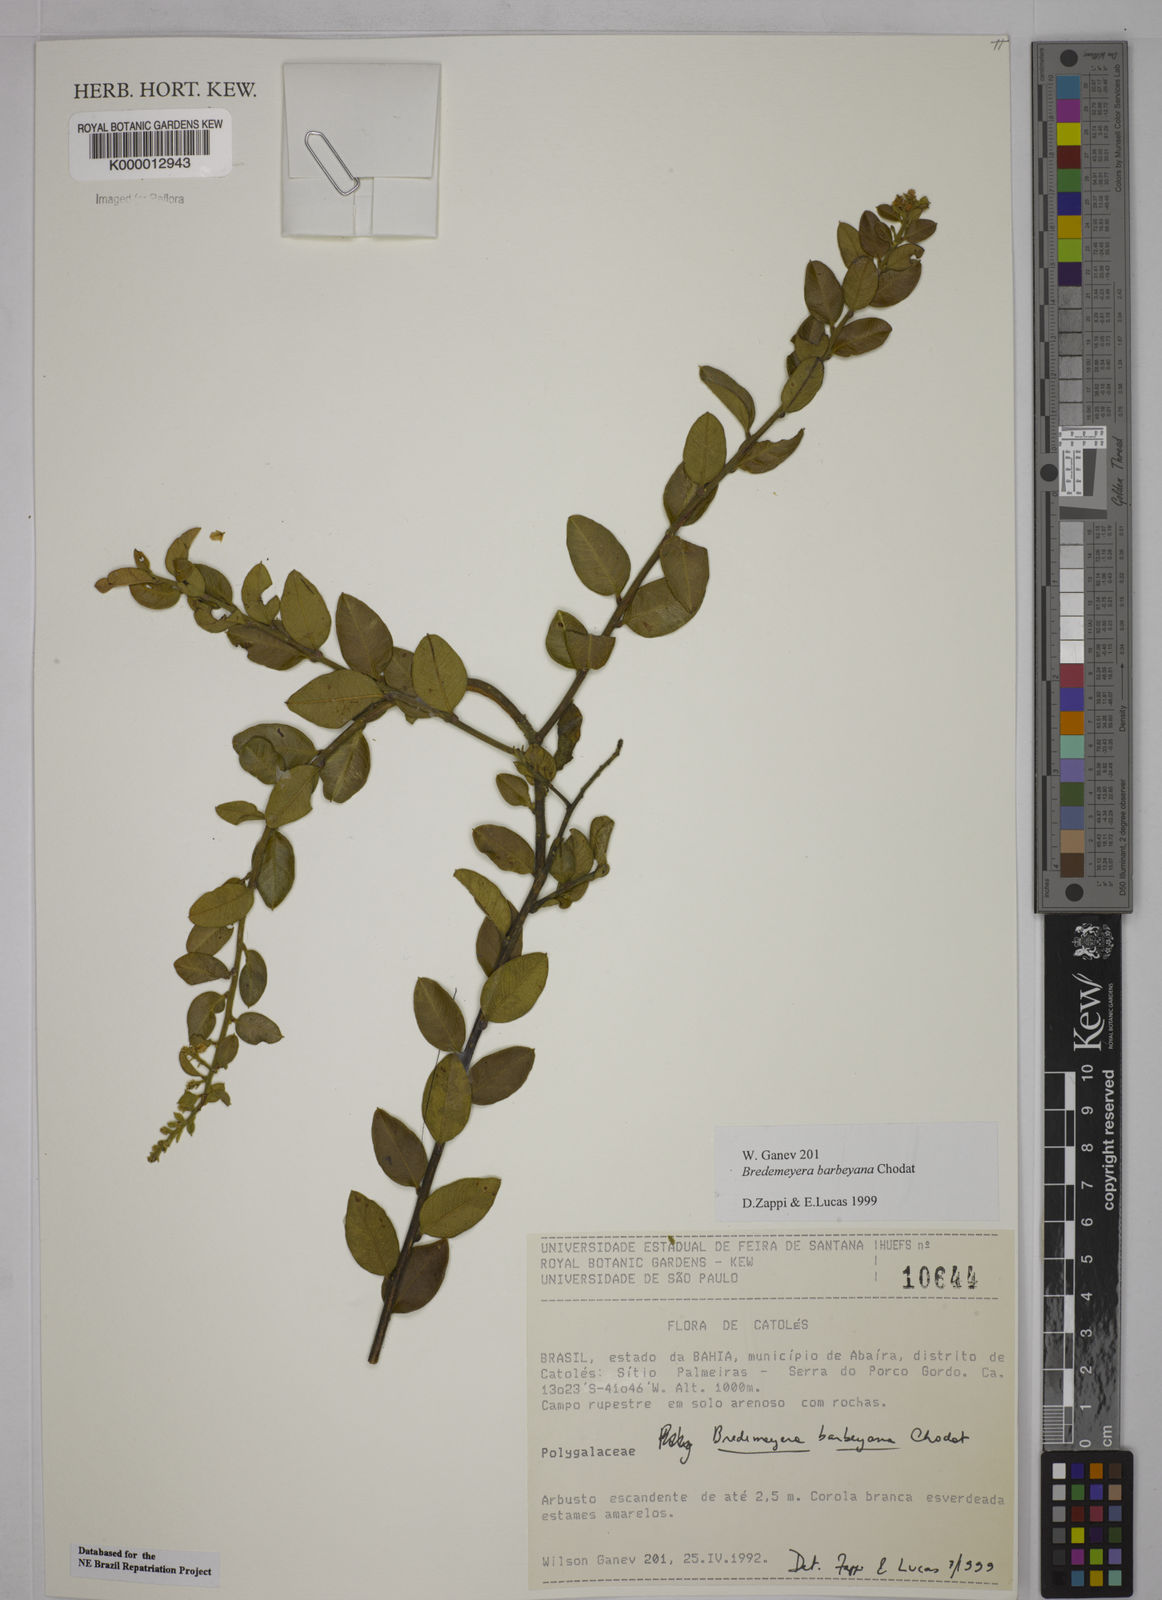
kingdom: Plantae
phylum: Tracheophyta
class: Magnoliopsida
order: Fabales
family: Polygalaceae
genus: Bredemeyera
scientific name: Bredemeyera barbeyana
